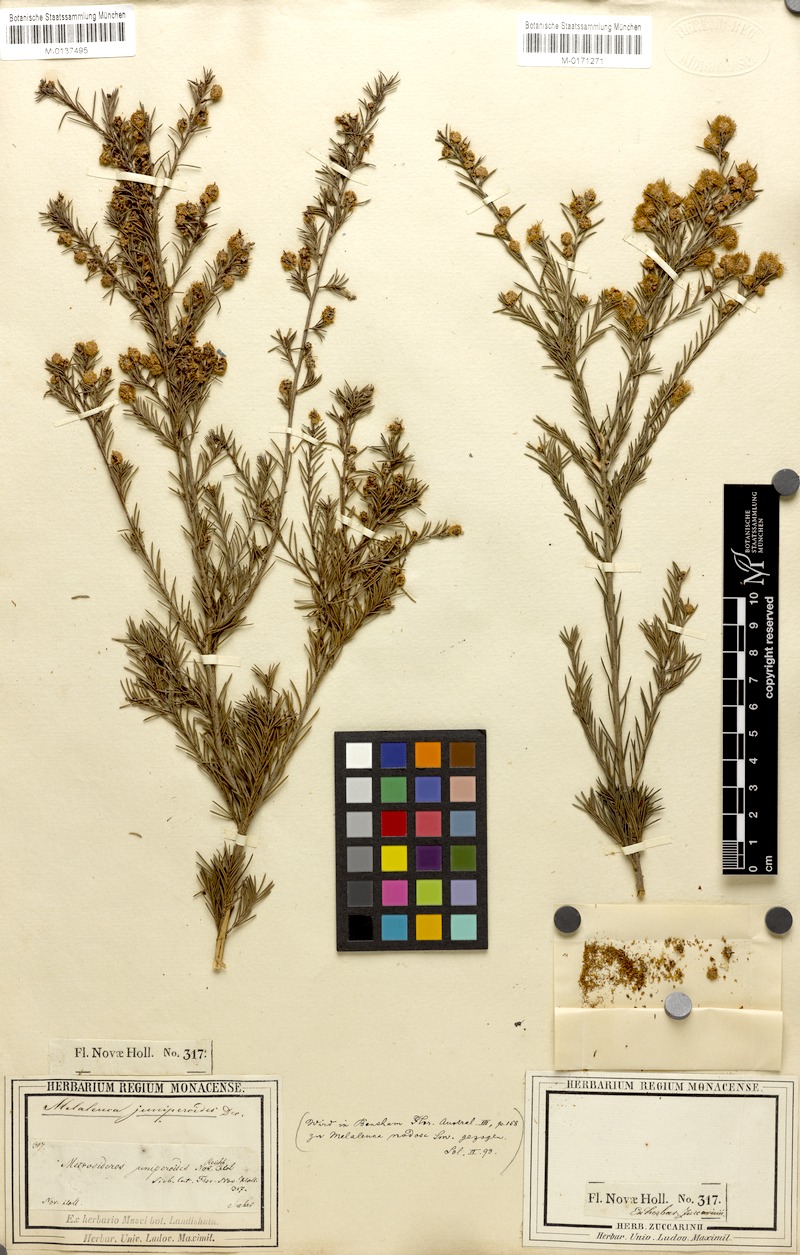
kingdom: Plantae
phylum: Tracheophyta
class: Magnoliopsida
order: Myrtales
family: Myrtaceae
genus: Melaleuca
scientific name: Melaleuca nodosa
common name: Prickly-leaf paperbark
